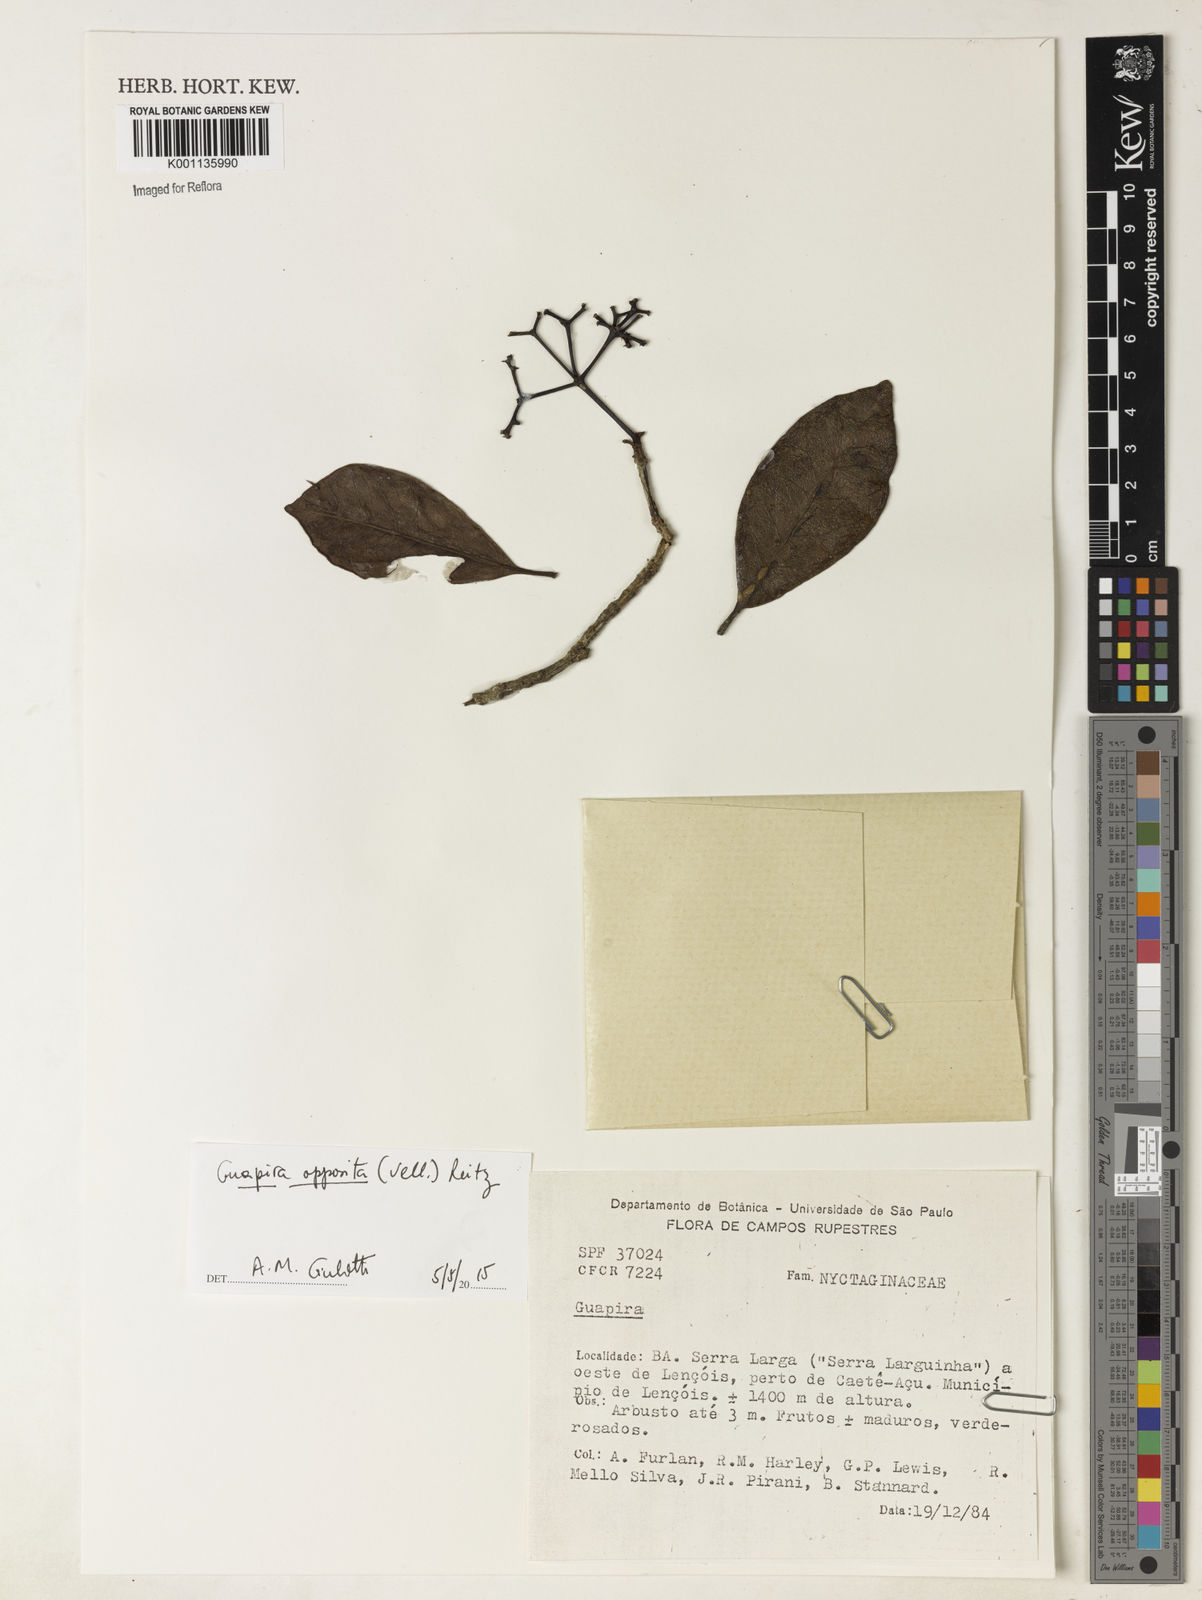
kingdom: Plantae
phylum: Tracheophyta
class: Magnoliopsida
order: Caryophyllales
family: Nyctaginaceae
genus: Guapira
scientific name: Guapira opposita
